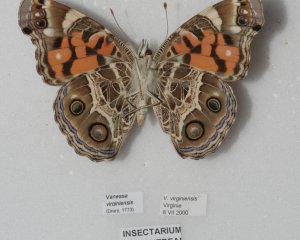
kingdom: Animalia
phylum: Arthropoda
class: Insecta
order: Lepidoptera
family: Nymphalidae
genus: Vanessa
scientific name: Vanessa virginiensis
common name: American Lady
